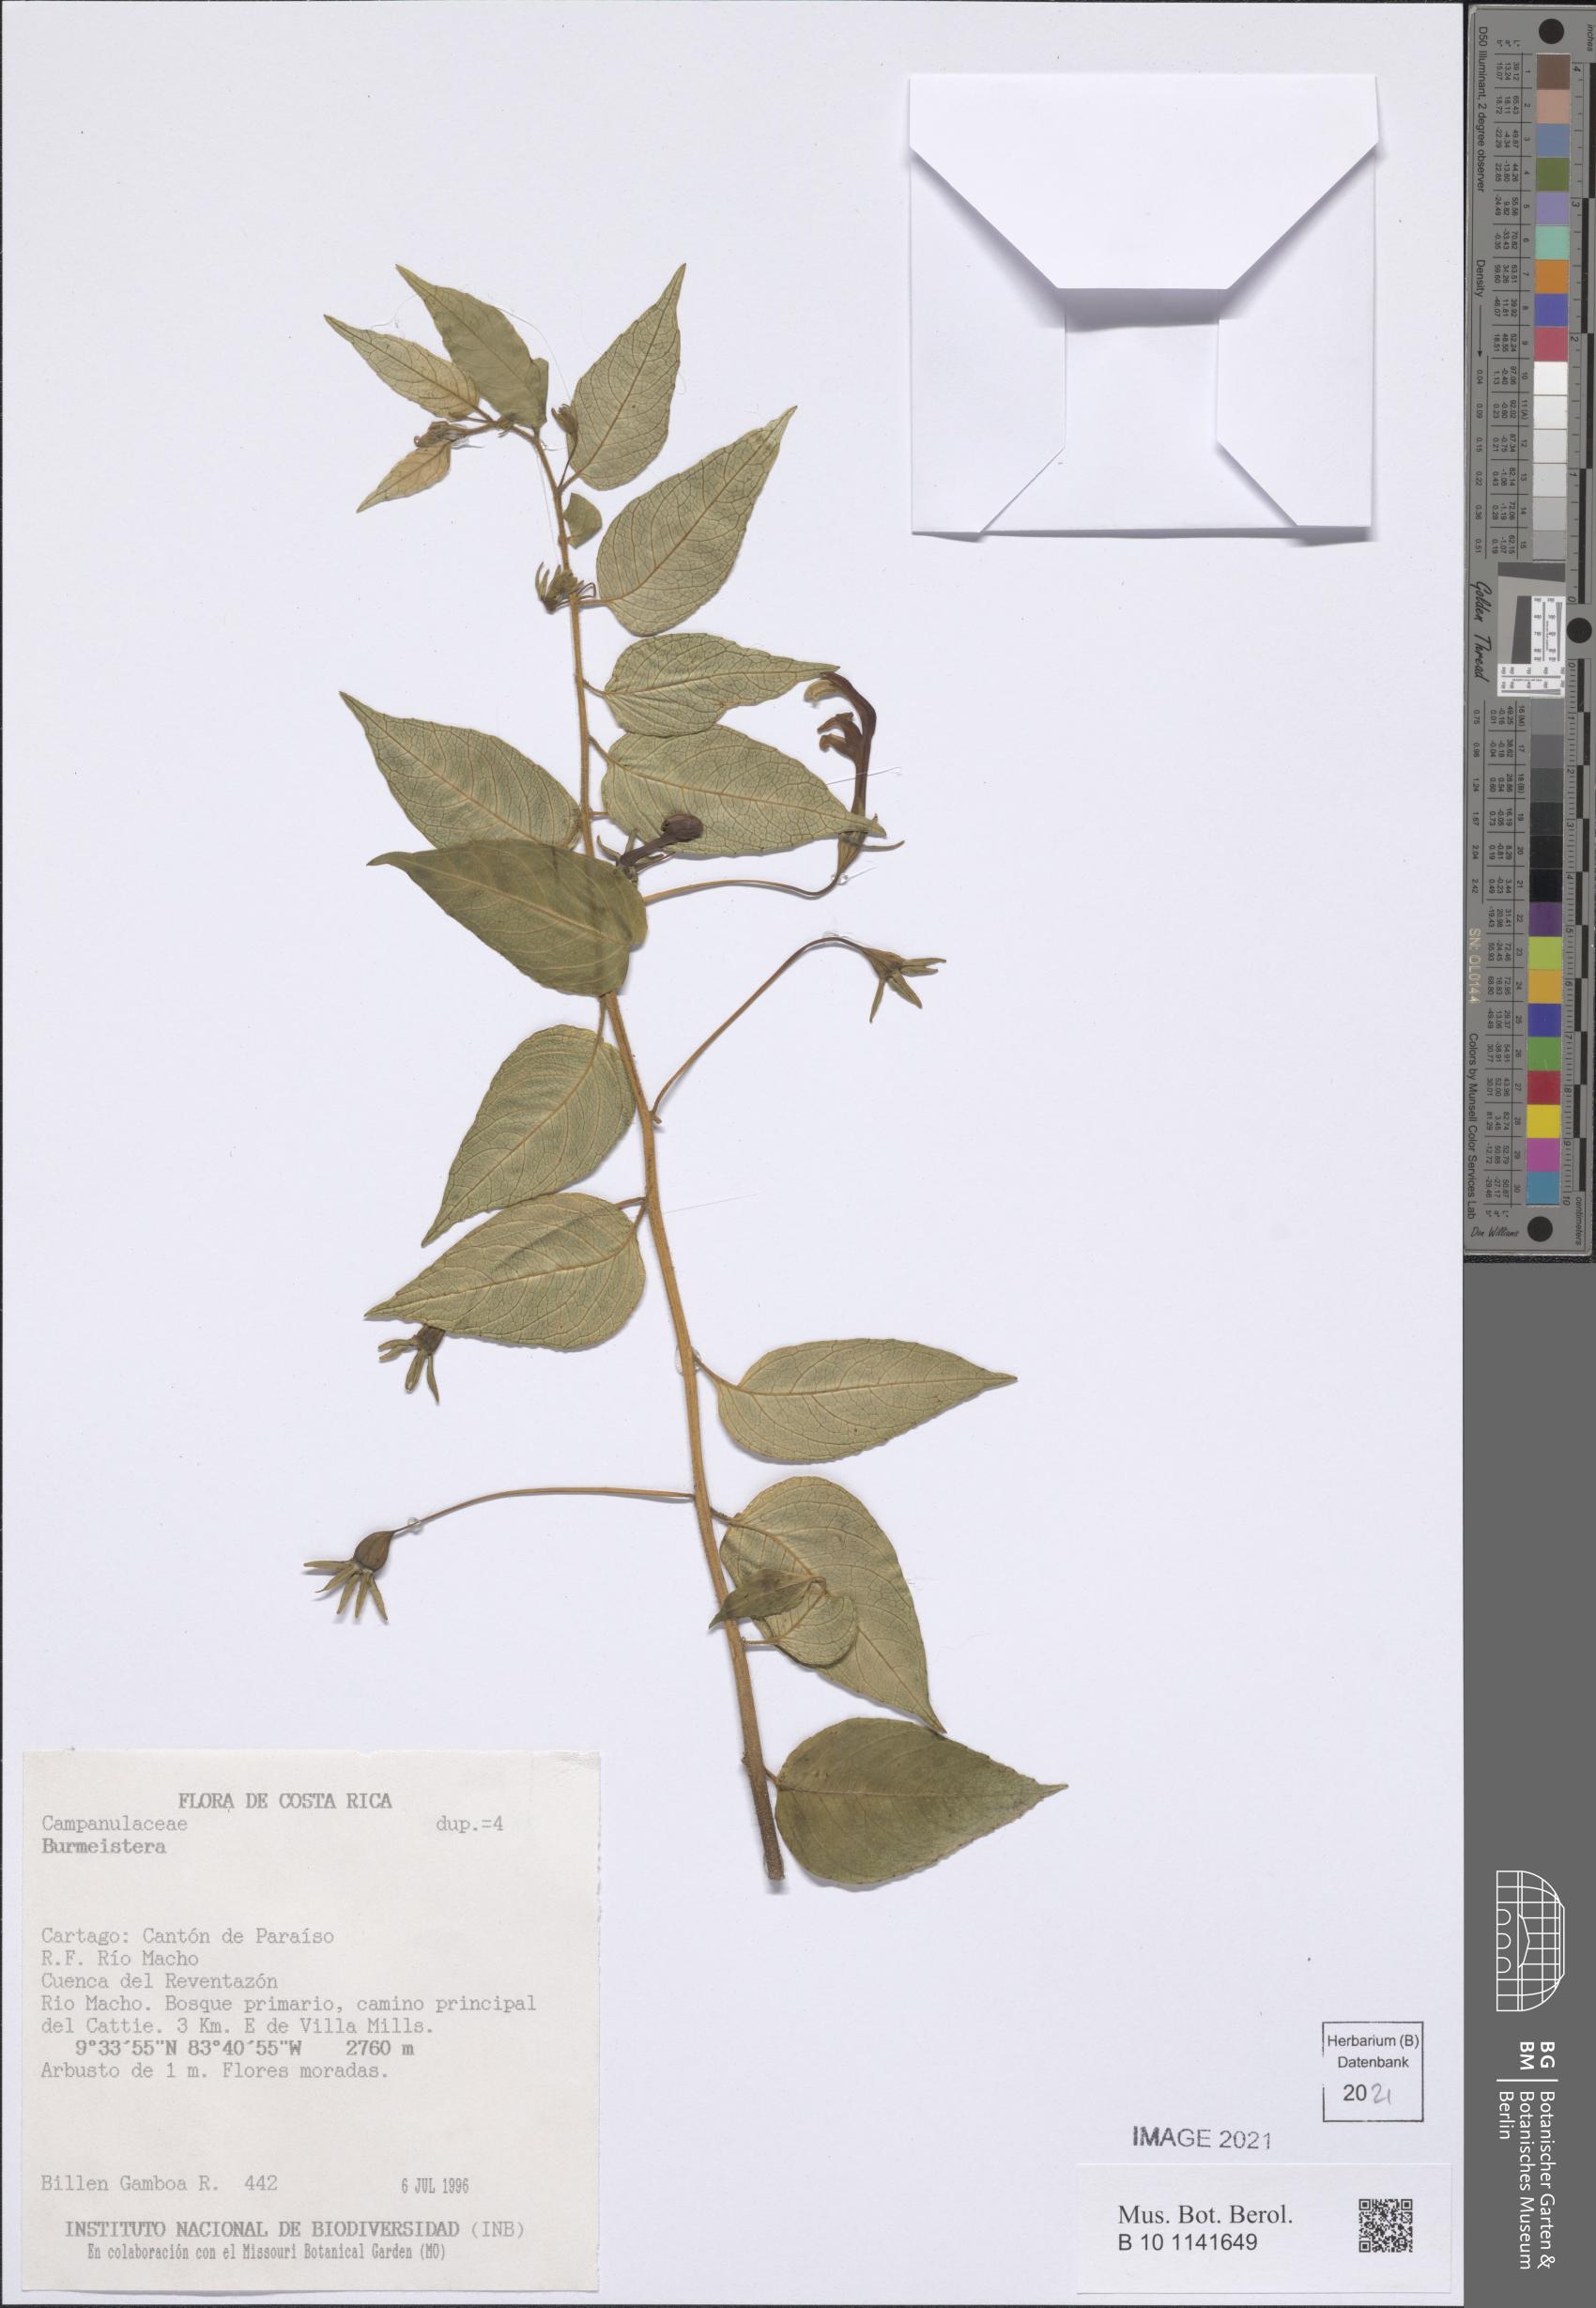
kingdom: Plantae
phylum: Tracheophyta
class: Magnoliopsida
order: Asterales
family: Campanulaceae
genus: Burmeistera
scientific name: Burmeistera obtusifolia
